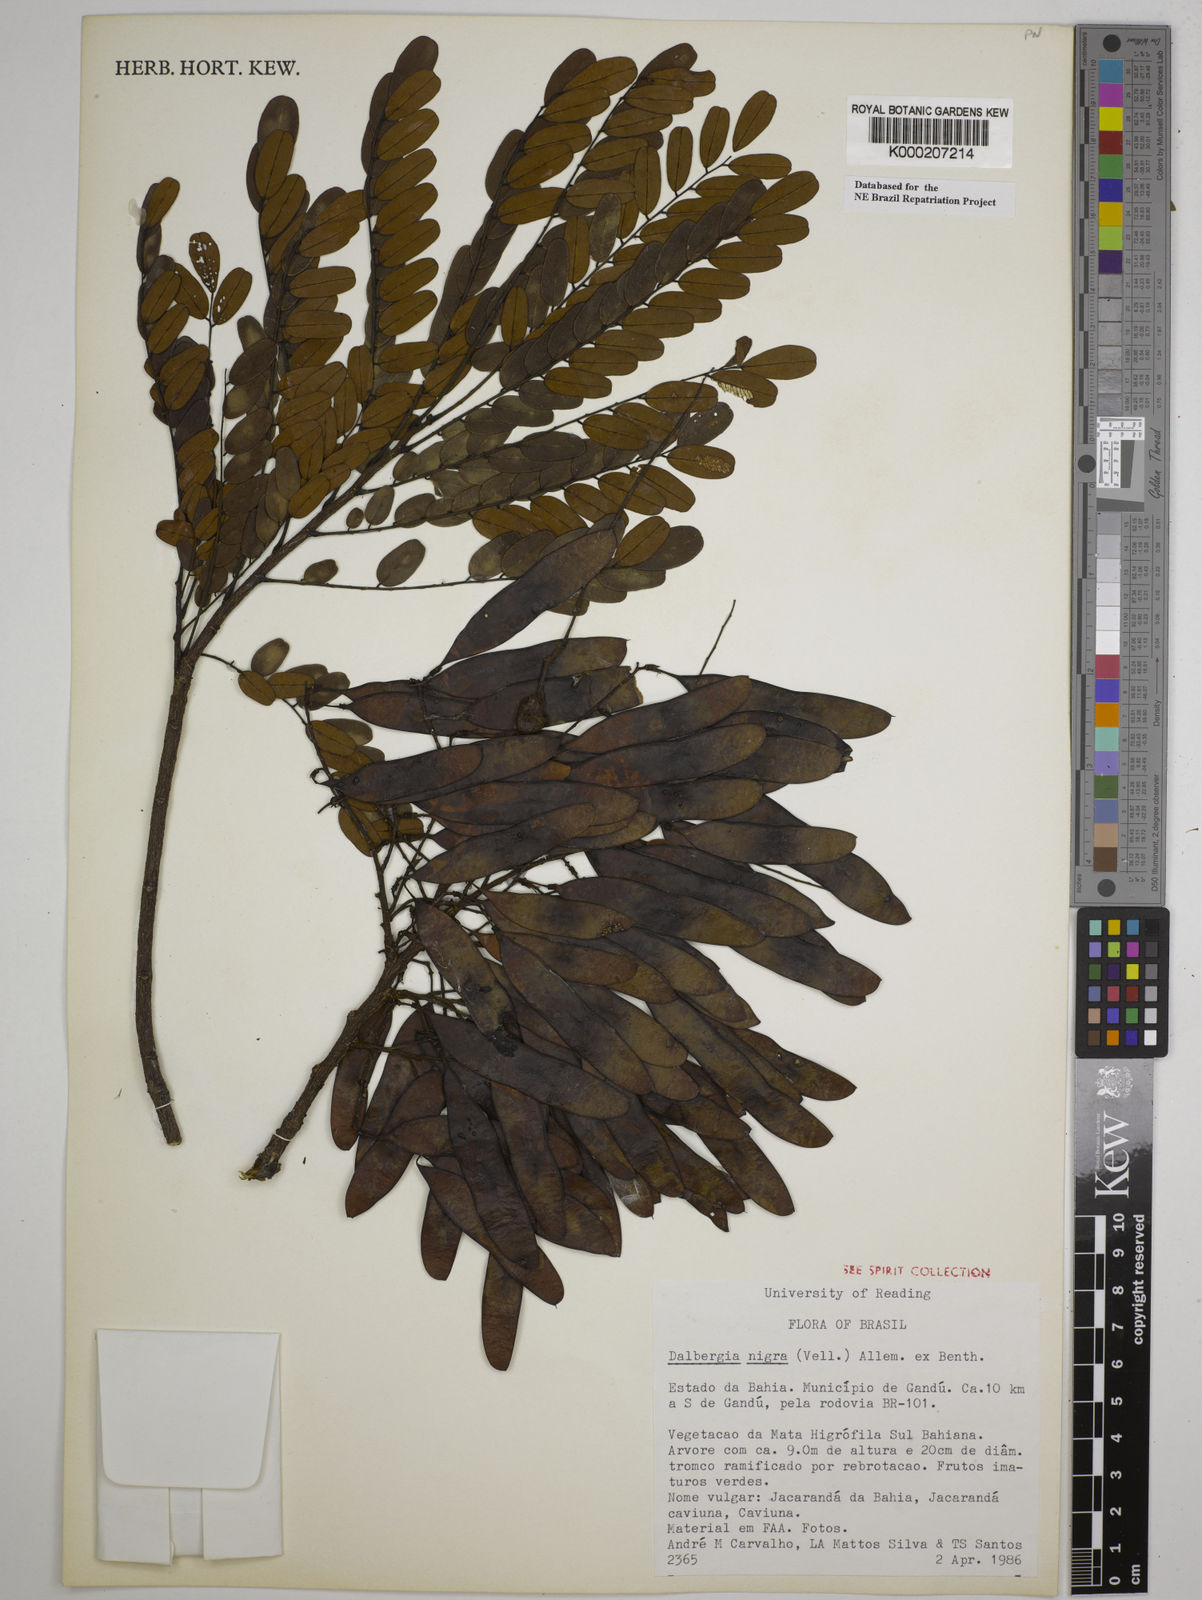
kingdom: Plantae
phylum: Tracheophyta
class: Magnoliopsida
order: Fabales
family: Fabaceae
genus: Dalbergia
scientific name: Dalbergia nigra
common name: Bahia rosewood
